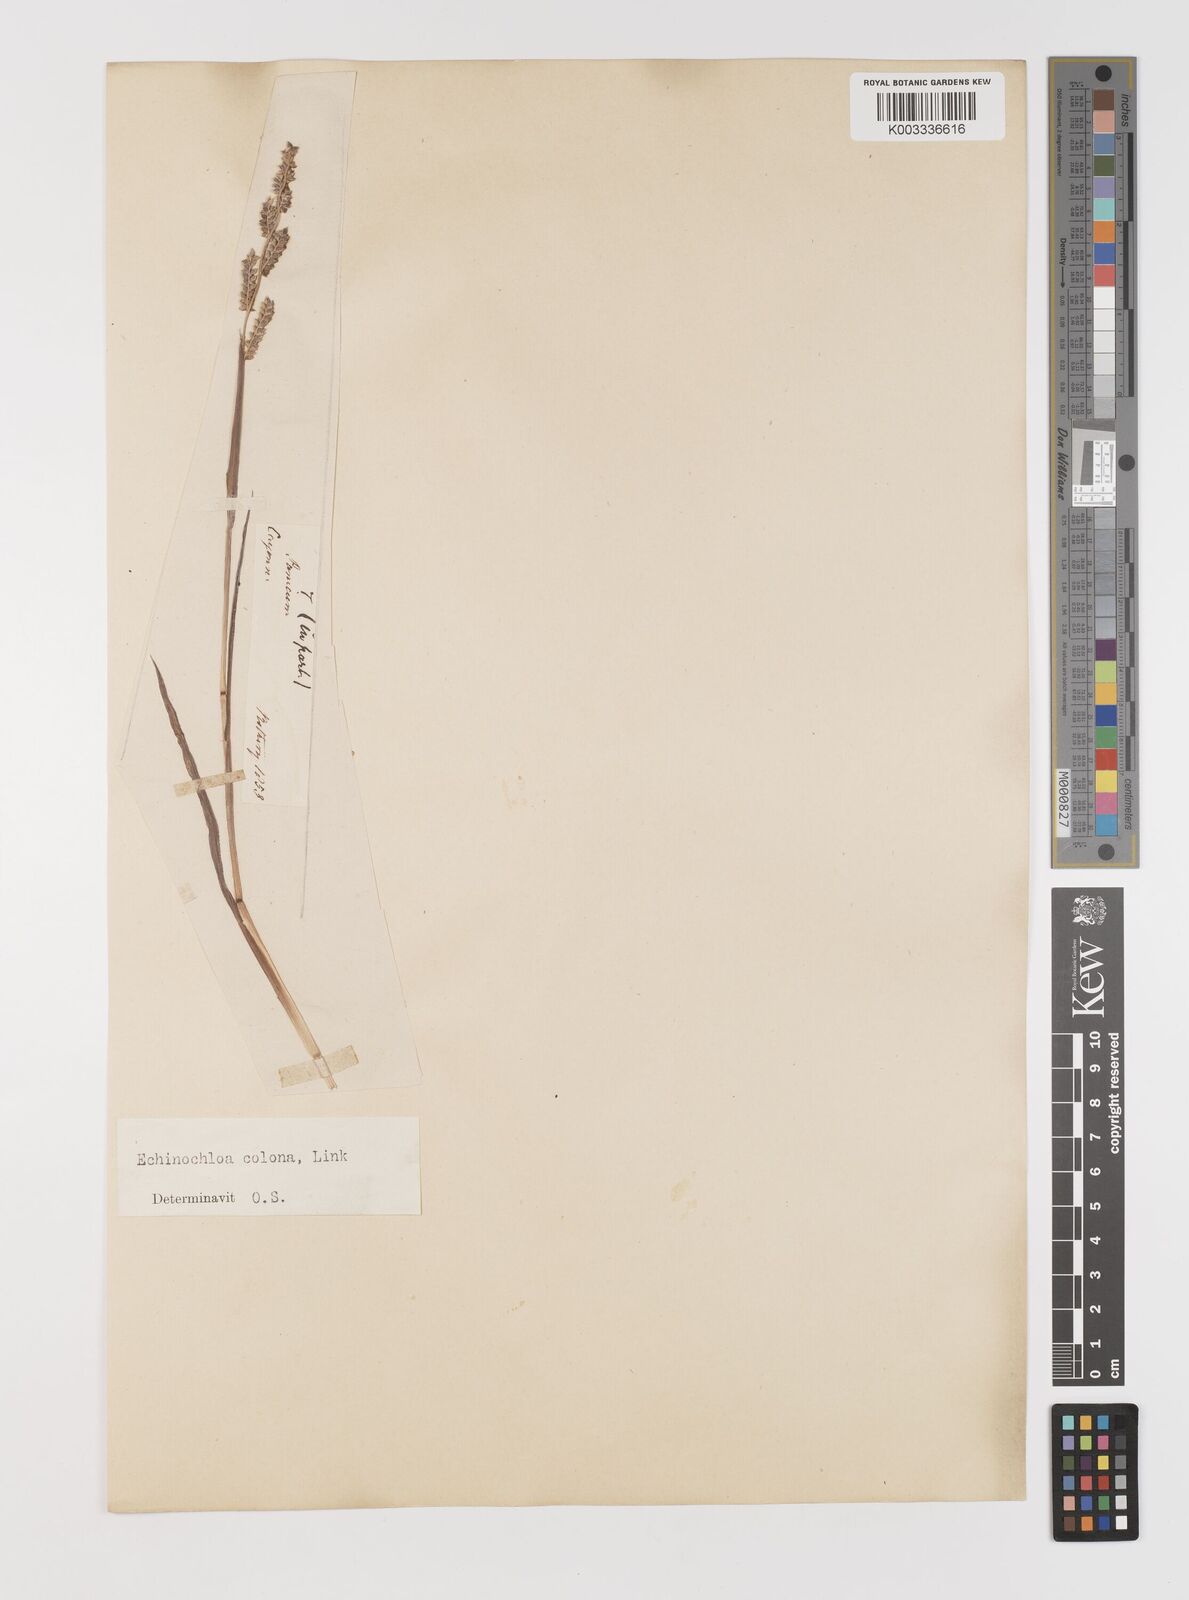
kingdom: Plantae
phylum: Tracheophyta
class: Liliopsida
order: Poales
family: Poaceae
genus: Echinochloa
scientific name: Echinochloa colonum
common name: Jungle rice
